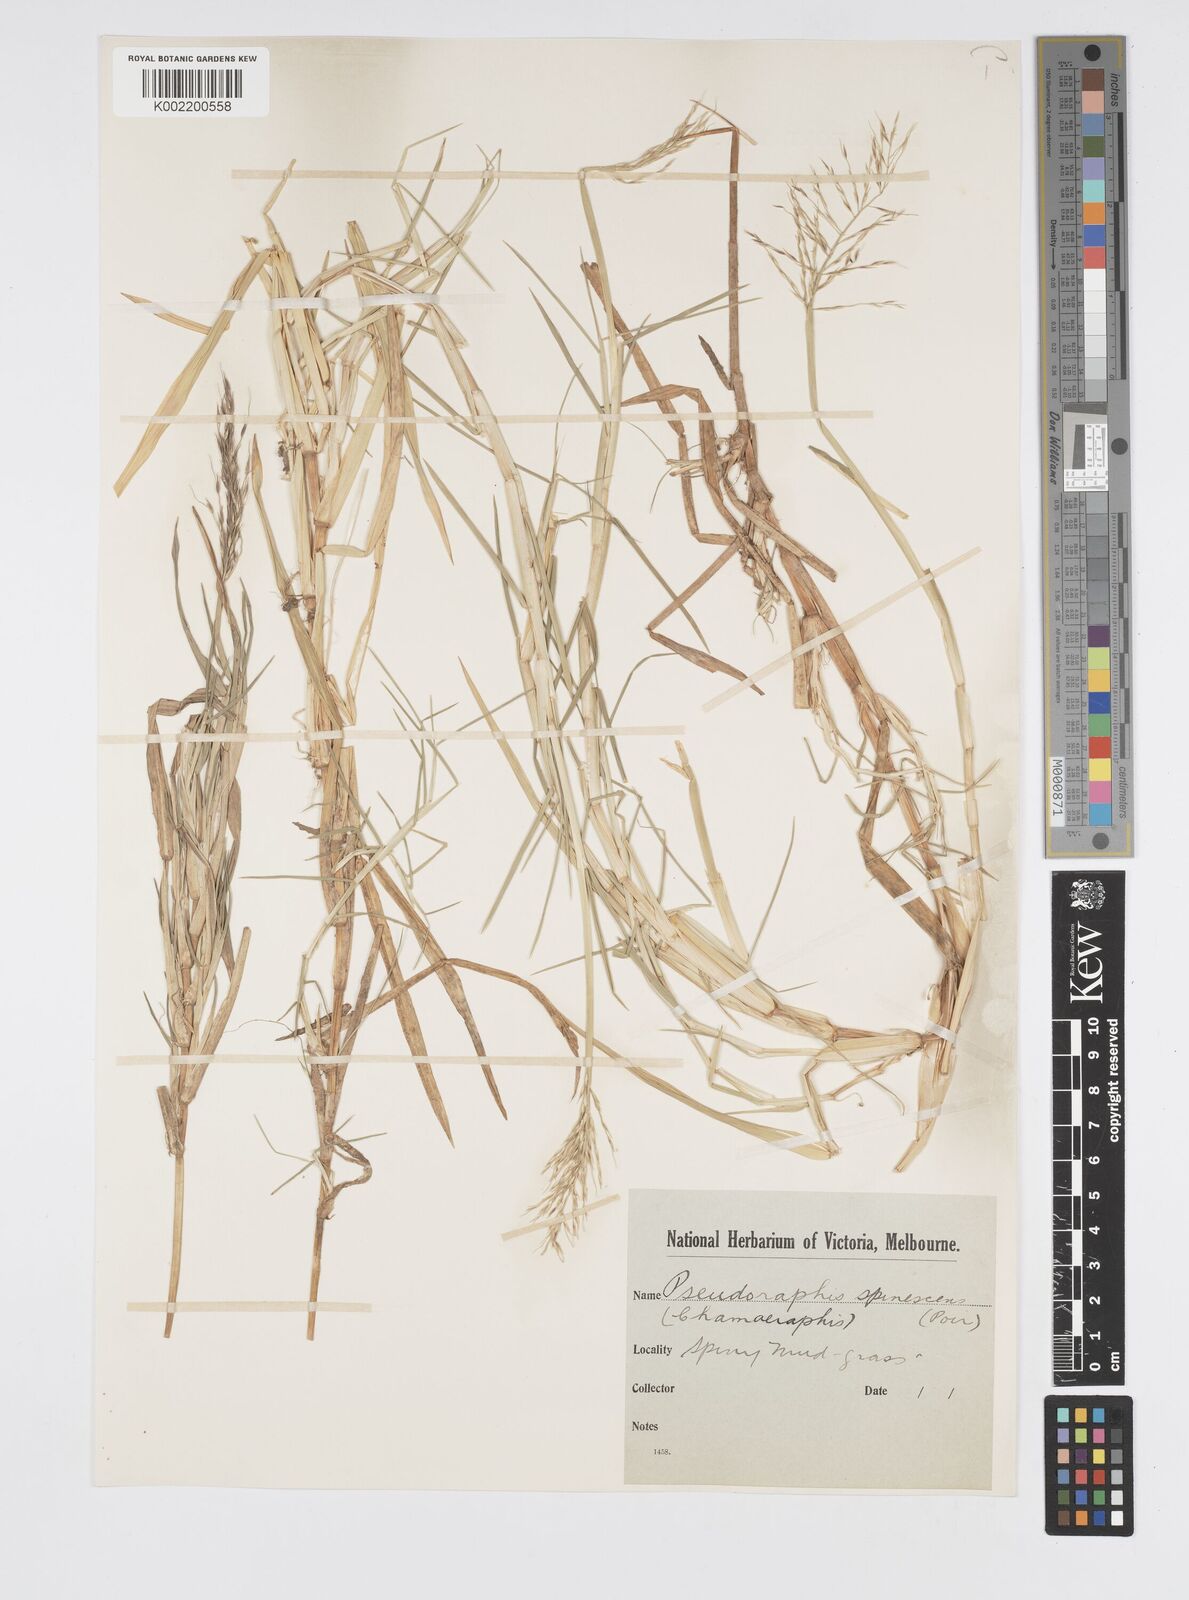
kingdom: Plantae
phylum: Tracheophyta
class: Liliopsida
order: Poales
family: Poaceae
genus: Pseudoraphis
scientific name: Pseudoraphis spinescens
